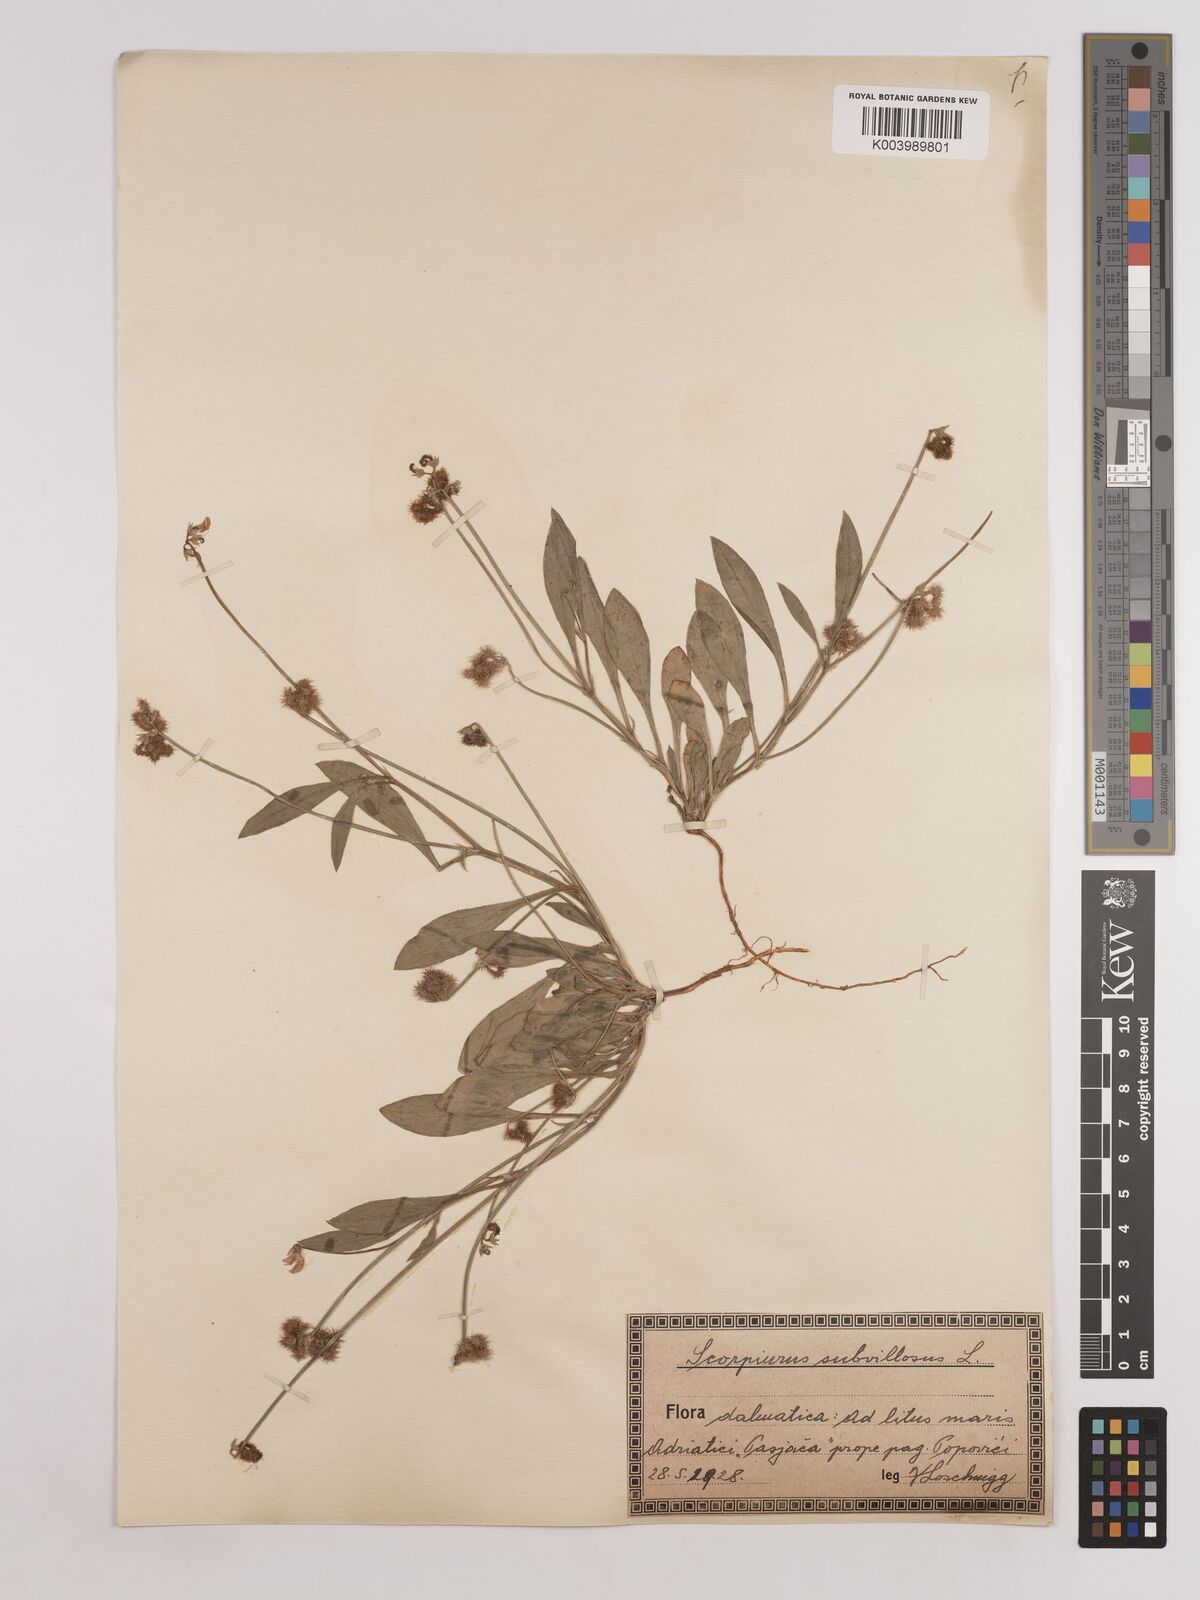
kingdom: Plantae
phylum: Tracheophyta
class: Magnoliopsida
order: Fabales
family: Fabaceae
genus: Scorpiurus
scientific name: Scorpiurus muricatus
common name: Caterpillar-plant
